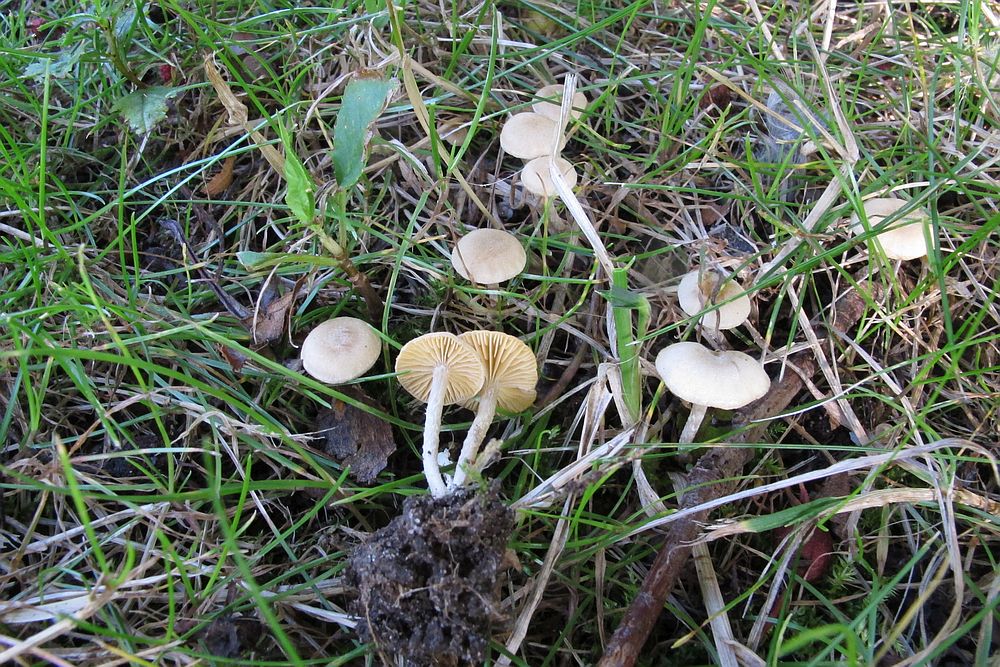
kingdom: Fungi
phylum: Basidiomycota
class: Agaricomycetes
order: Agaricales
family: Tubariaceae
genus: Tubaria
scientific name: Tubaria dispersa
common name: tjørne-fnughat
